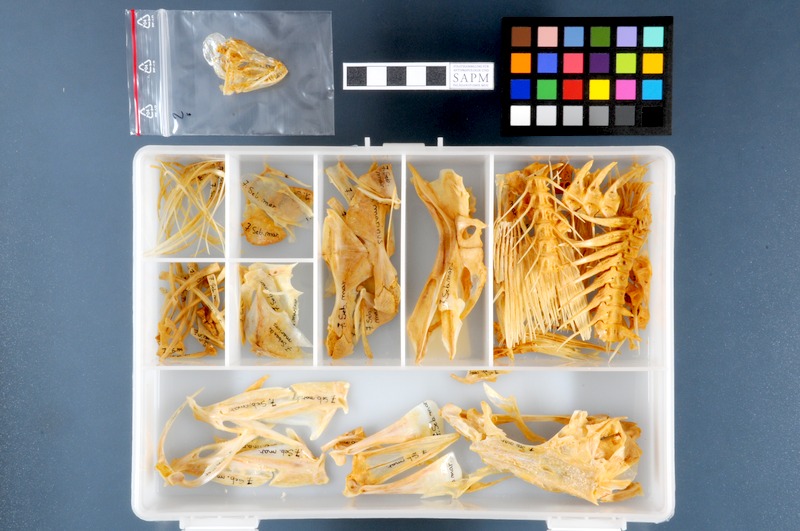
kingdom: Animalia
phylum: Chordata
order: Scorpaeniformes
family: Sebastidae
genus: Sebastes
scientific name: Sebastes norvegicus
